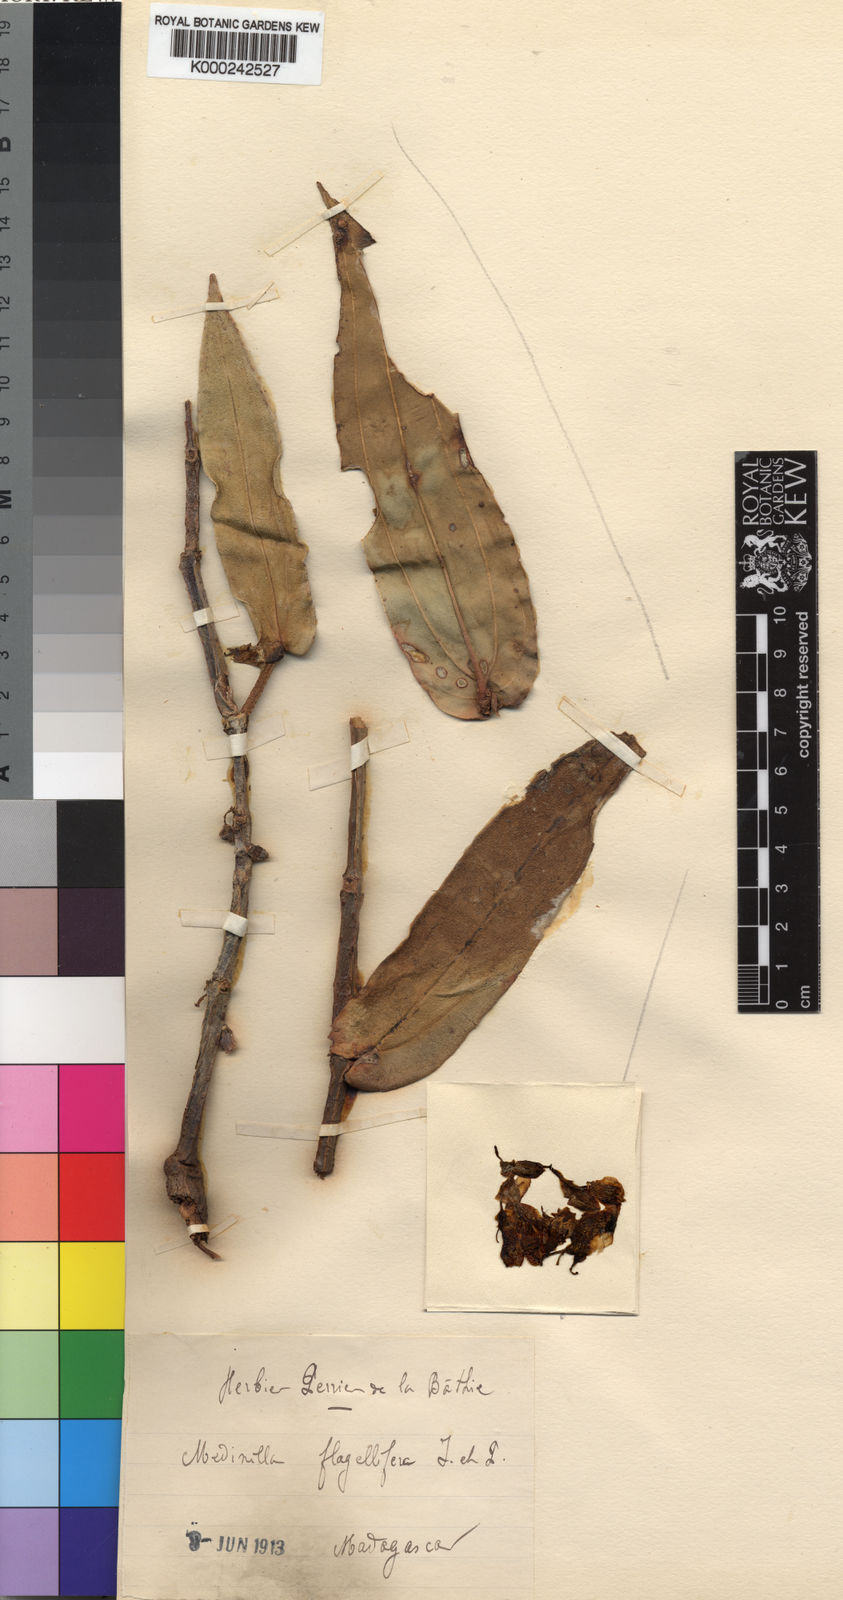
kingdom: Plantae
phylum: Tracheophyta
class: Magnoliopsida
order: Myrtales
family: Melastomataceae
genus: Medinilla
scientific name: Medinilla flagellifera
